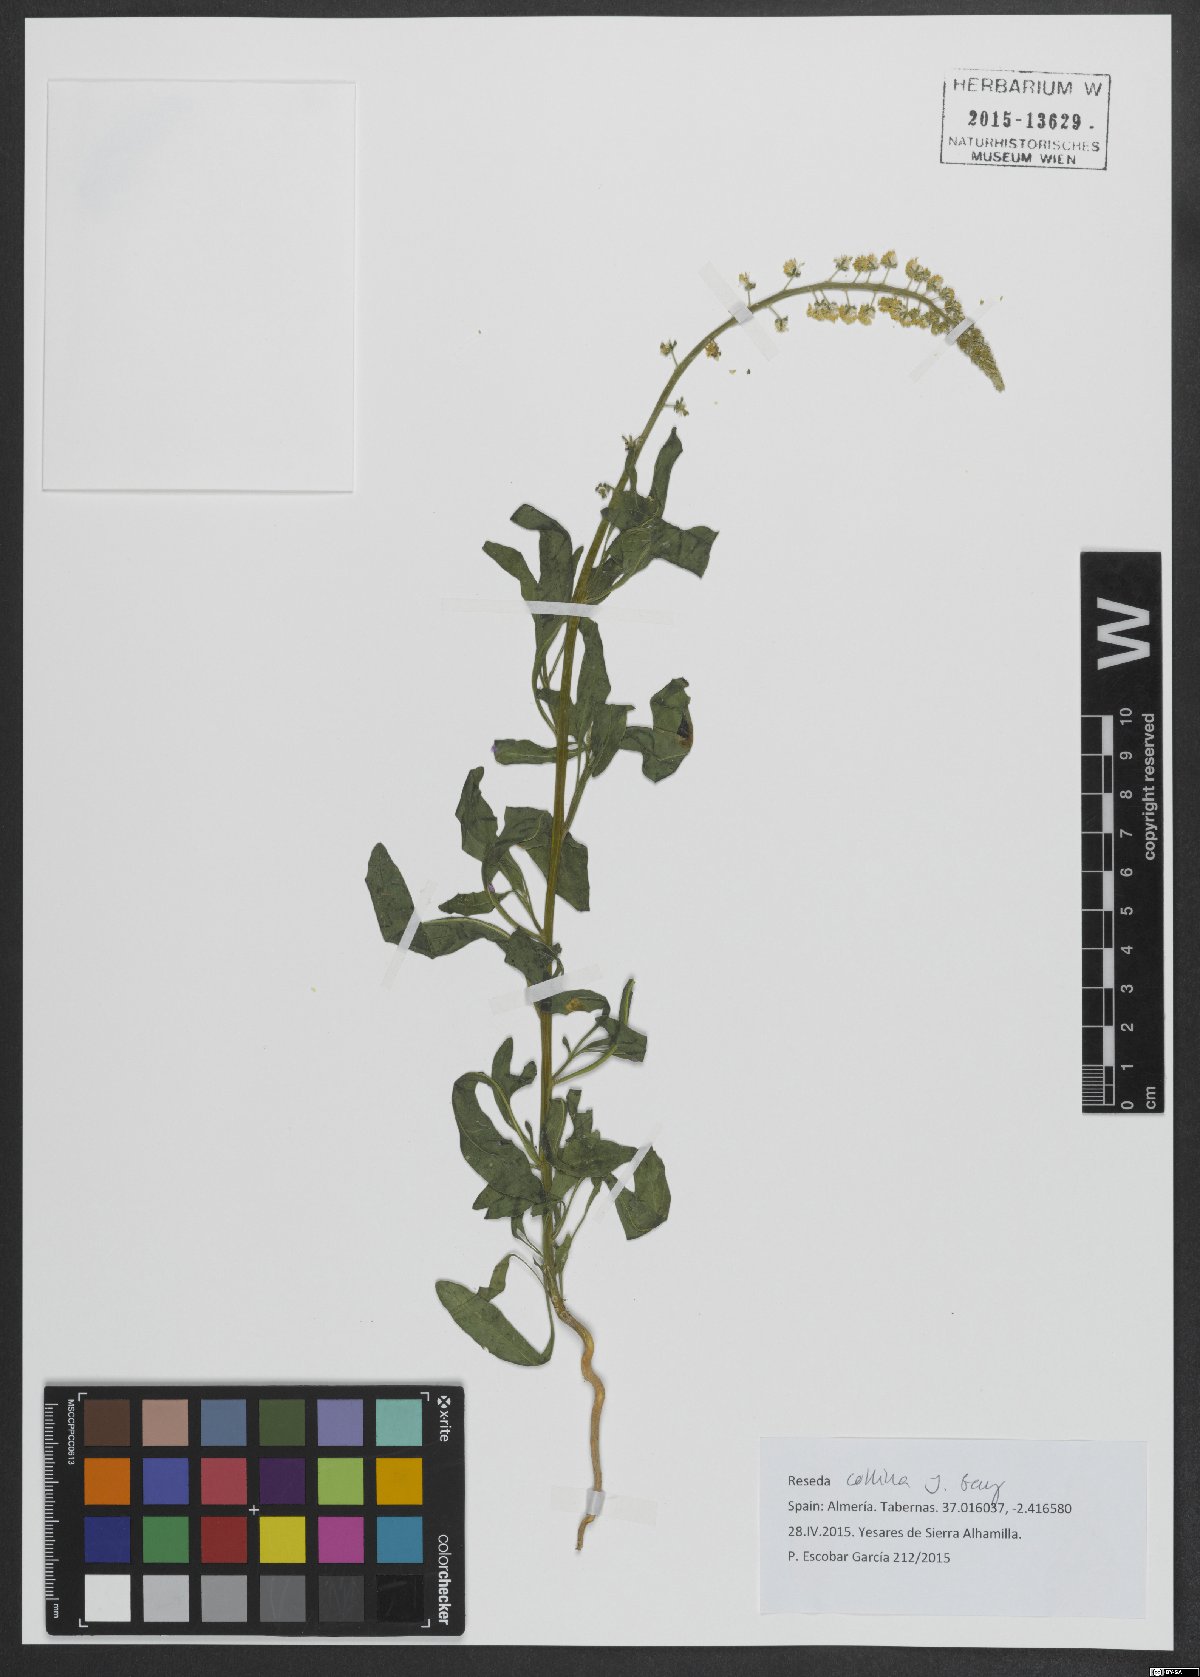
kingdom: Plantae
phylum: Tracheophyta
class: Magnoliopsida
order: Brassicales
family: Resedaceae
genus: Reseda
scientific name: Reseda collina
